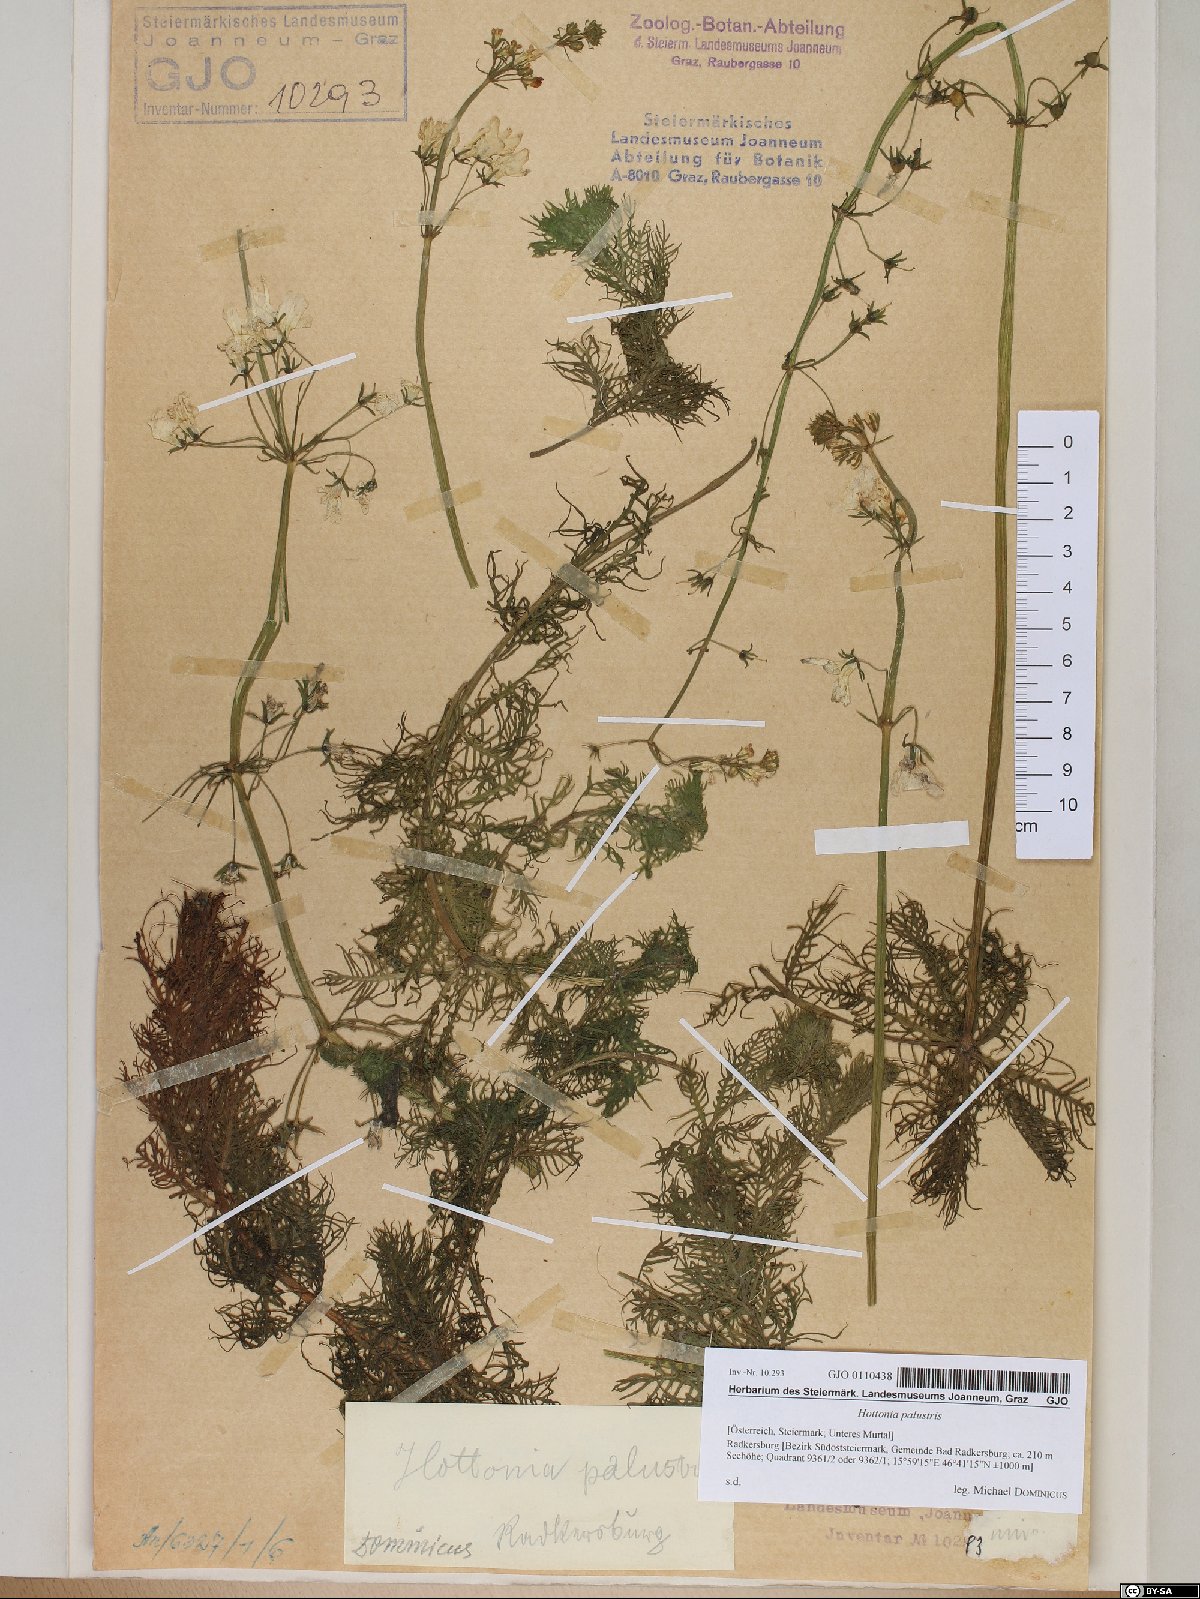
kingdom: Plantae
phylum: Tracheophyta
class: Magnoliopsida
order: Ericales
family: Primulaceae
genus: Hottonia
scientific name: Hottonia palustris
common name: Water-violet
